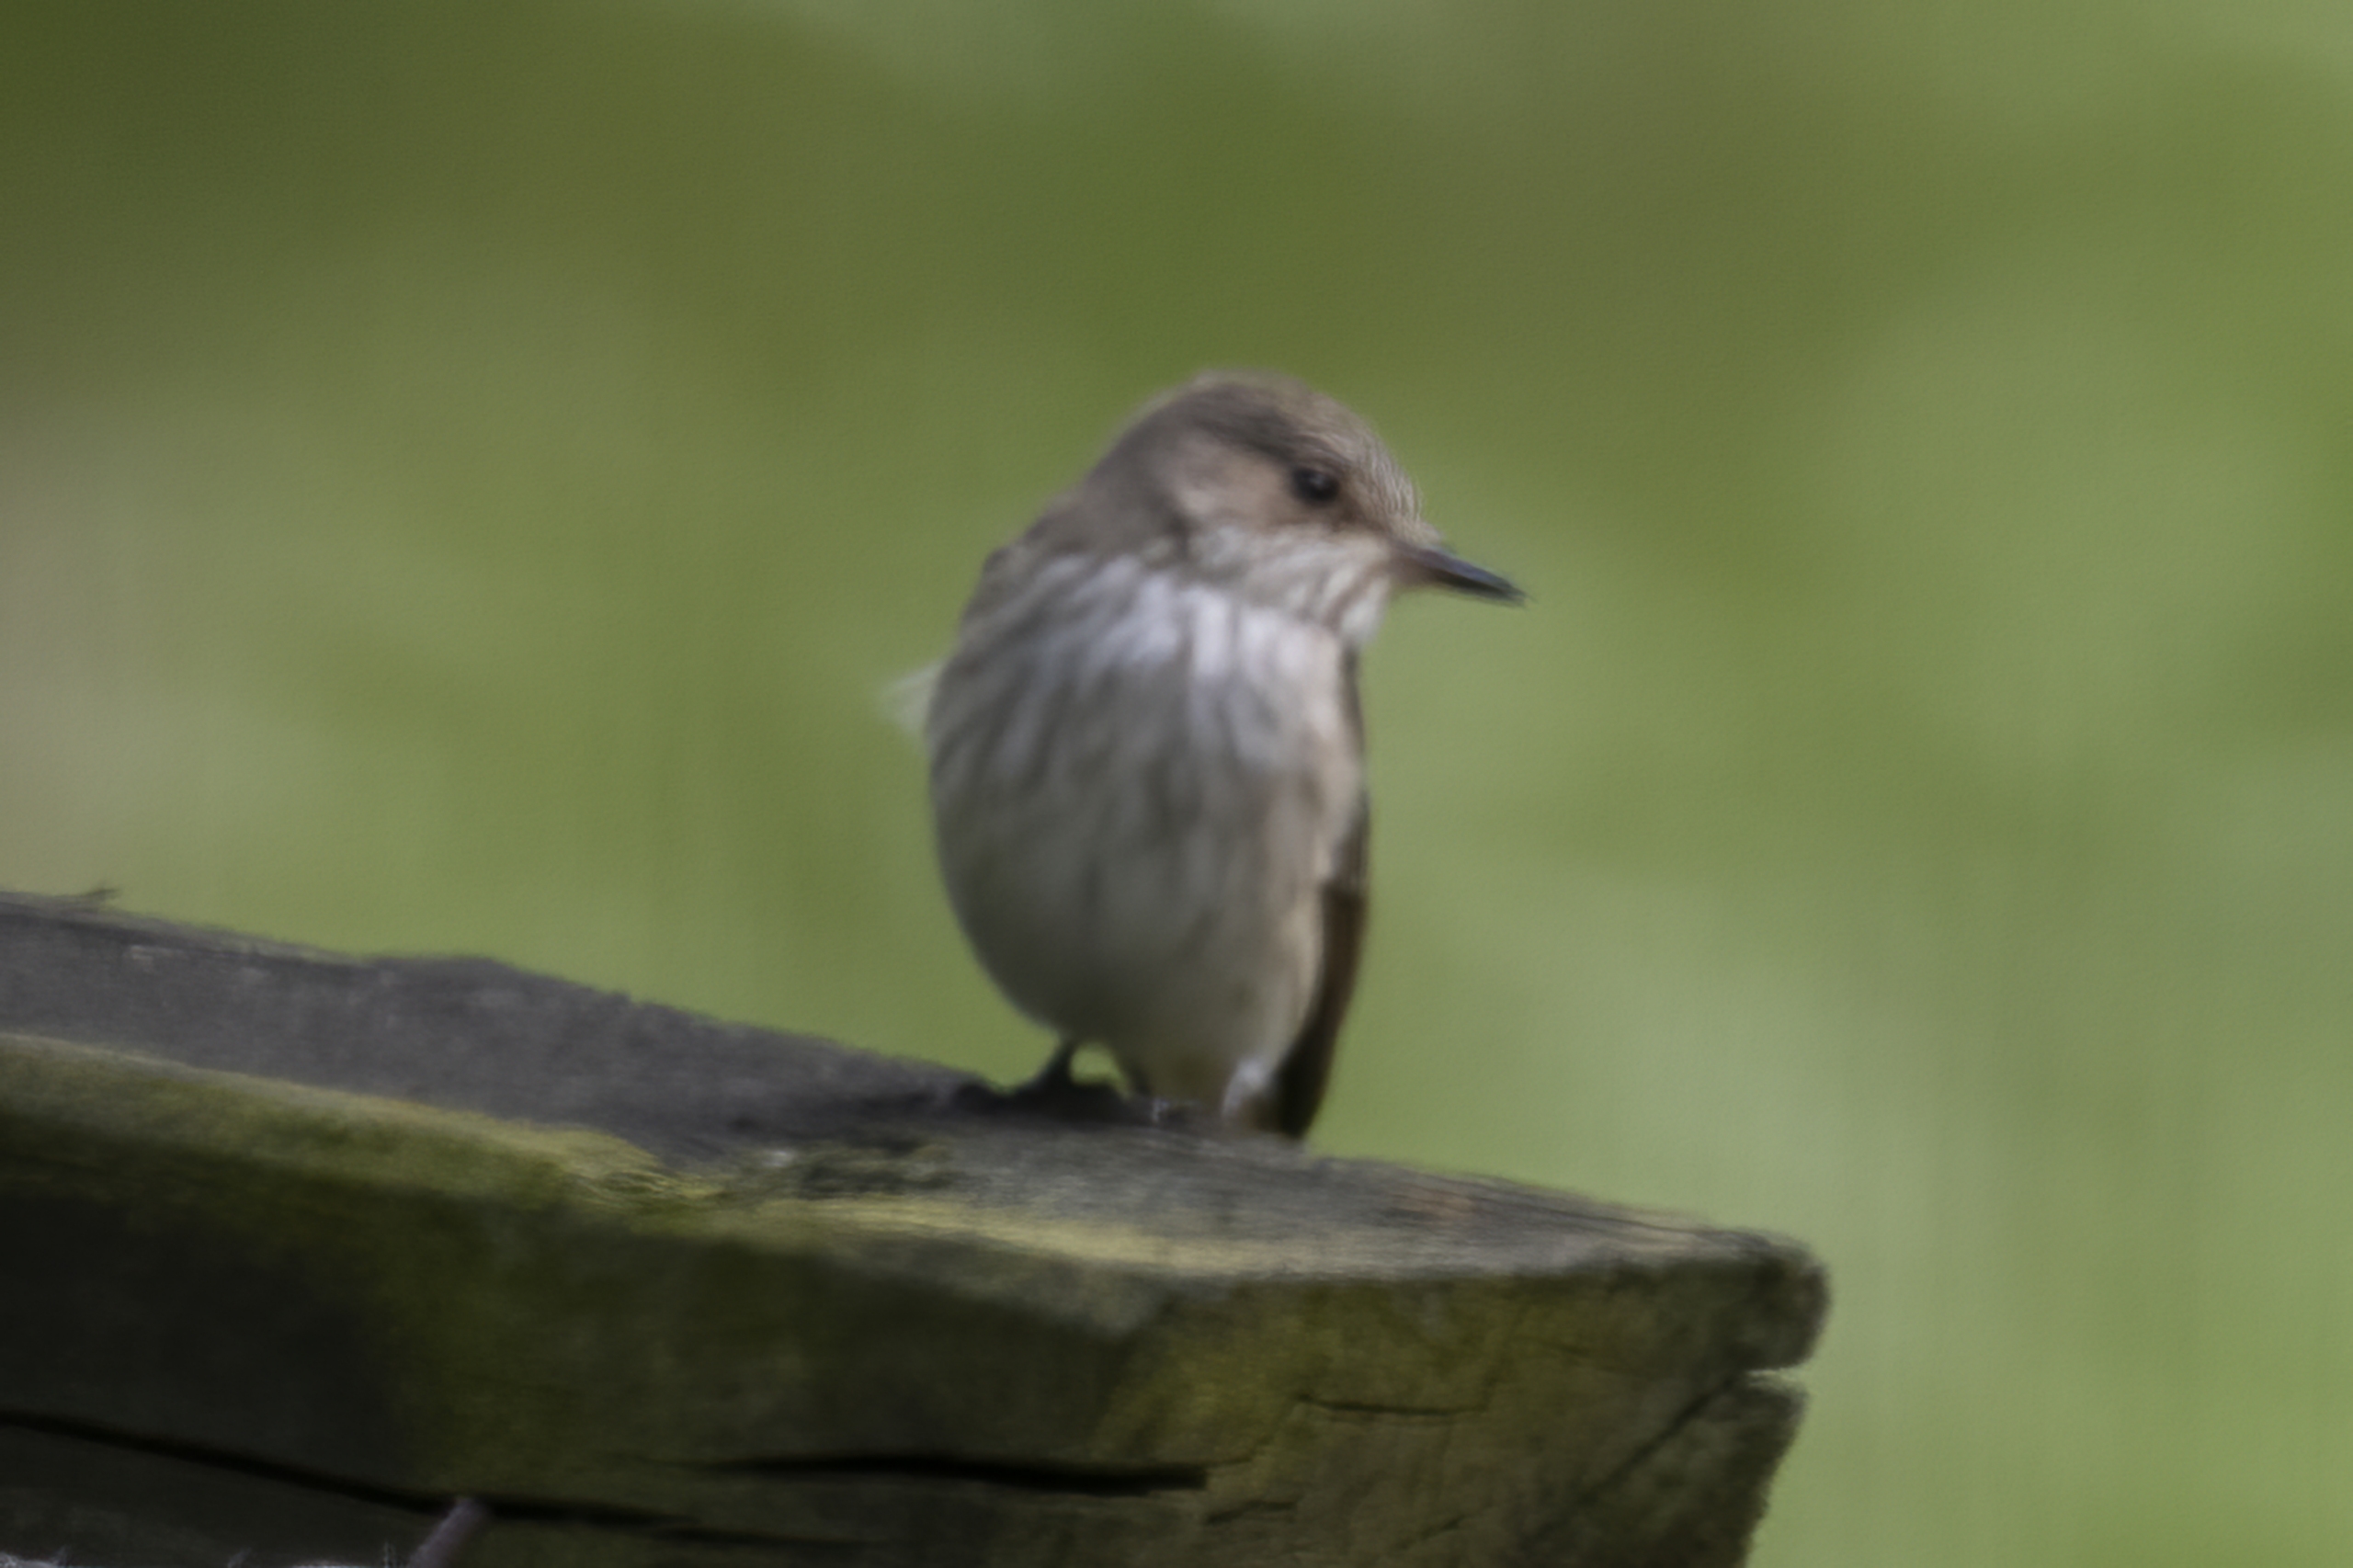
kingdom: Animalia
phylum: Chordata
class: Aves
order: Passeriformes
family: Muscicapidae
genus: Muscicapa
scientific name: Muscicapa striata
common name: Grå fluesnapper
